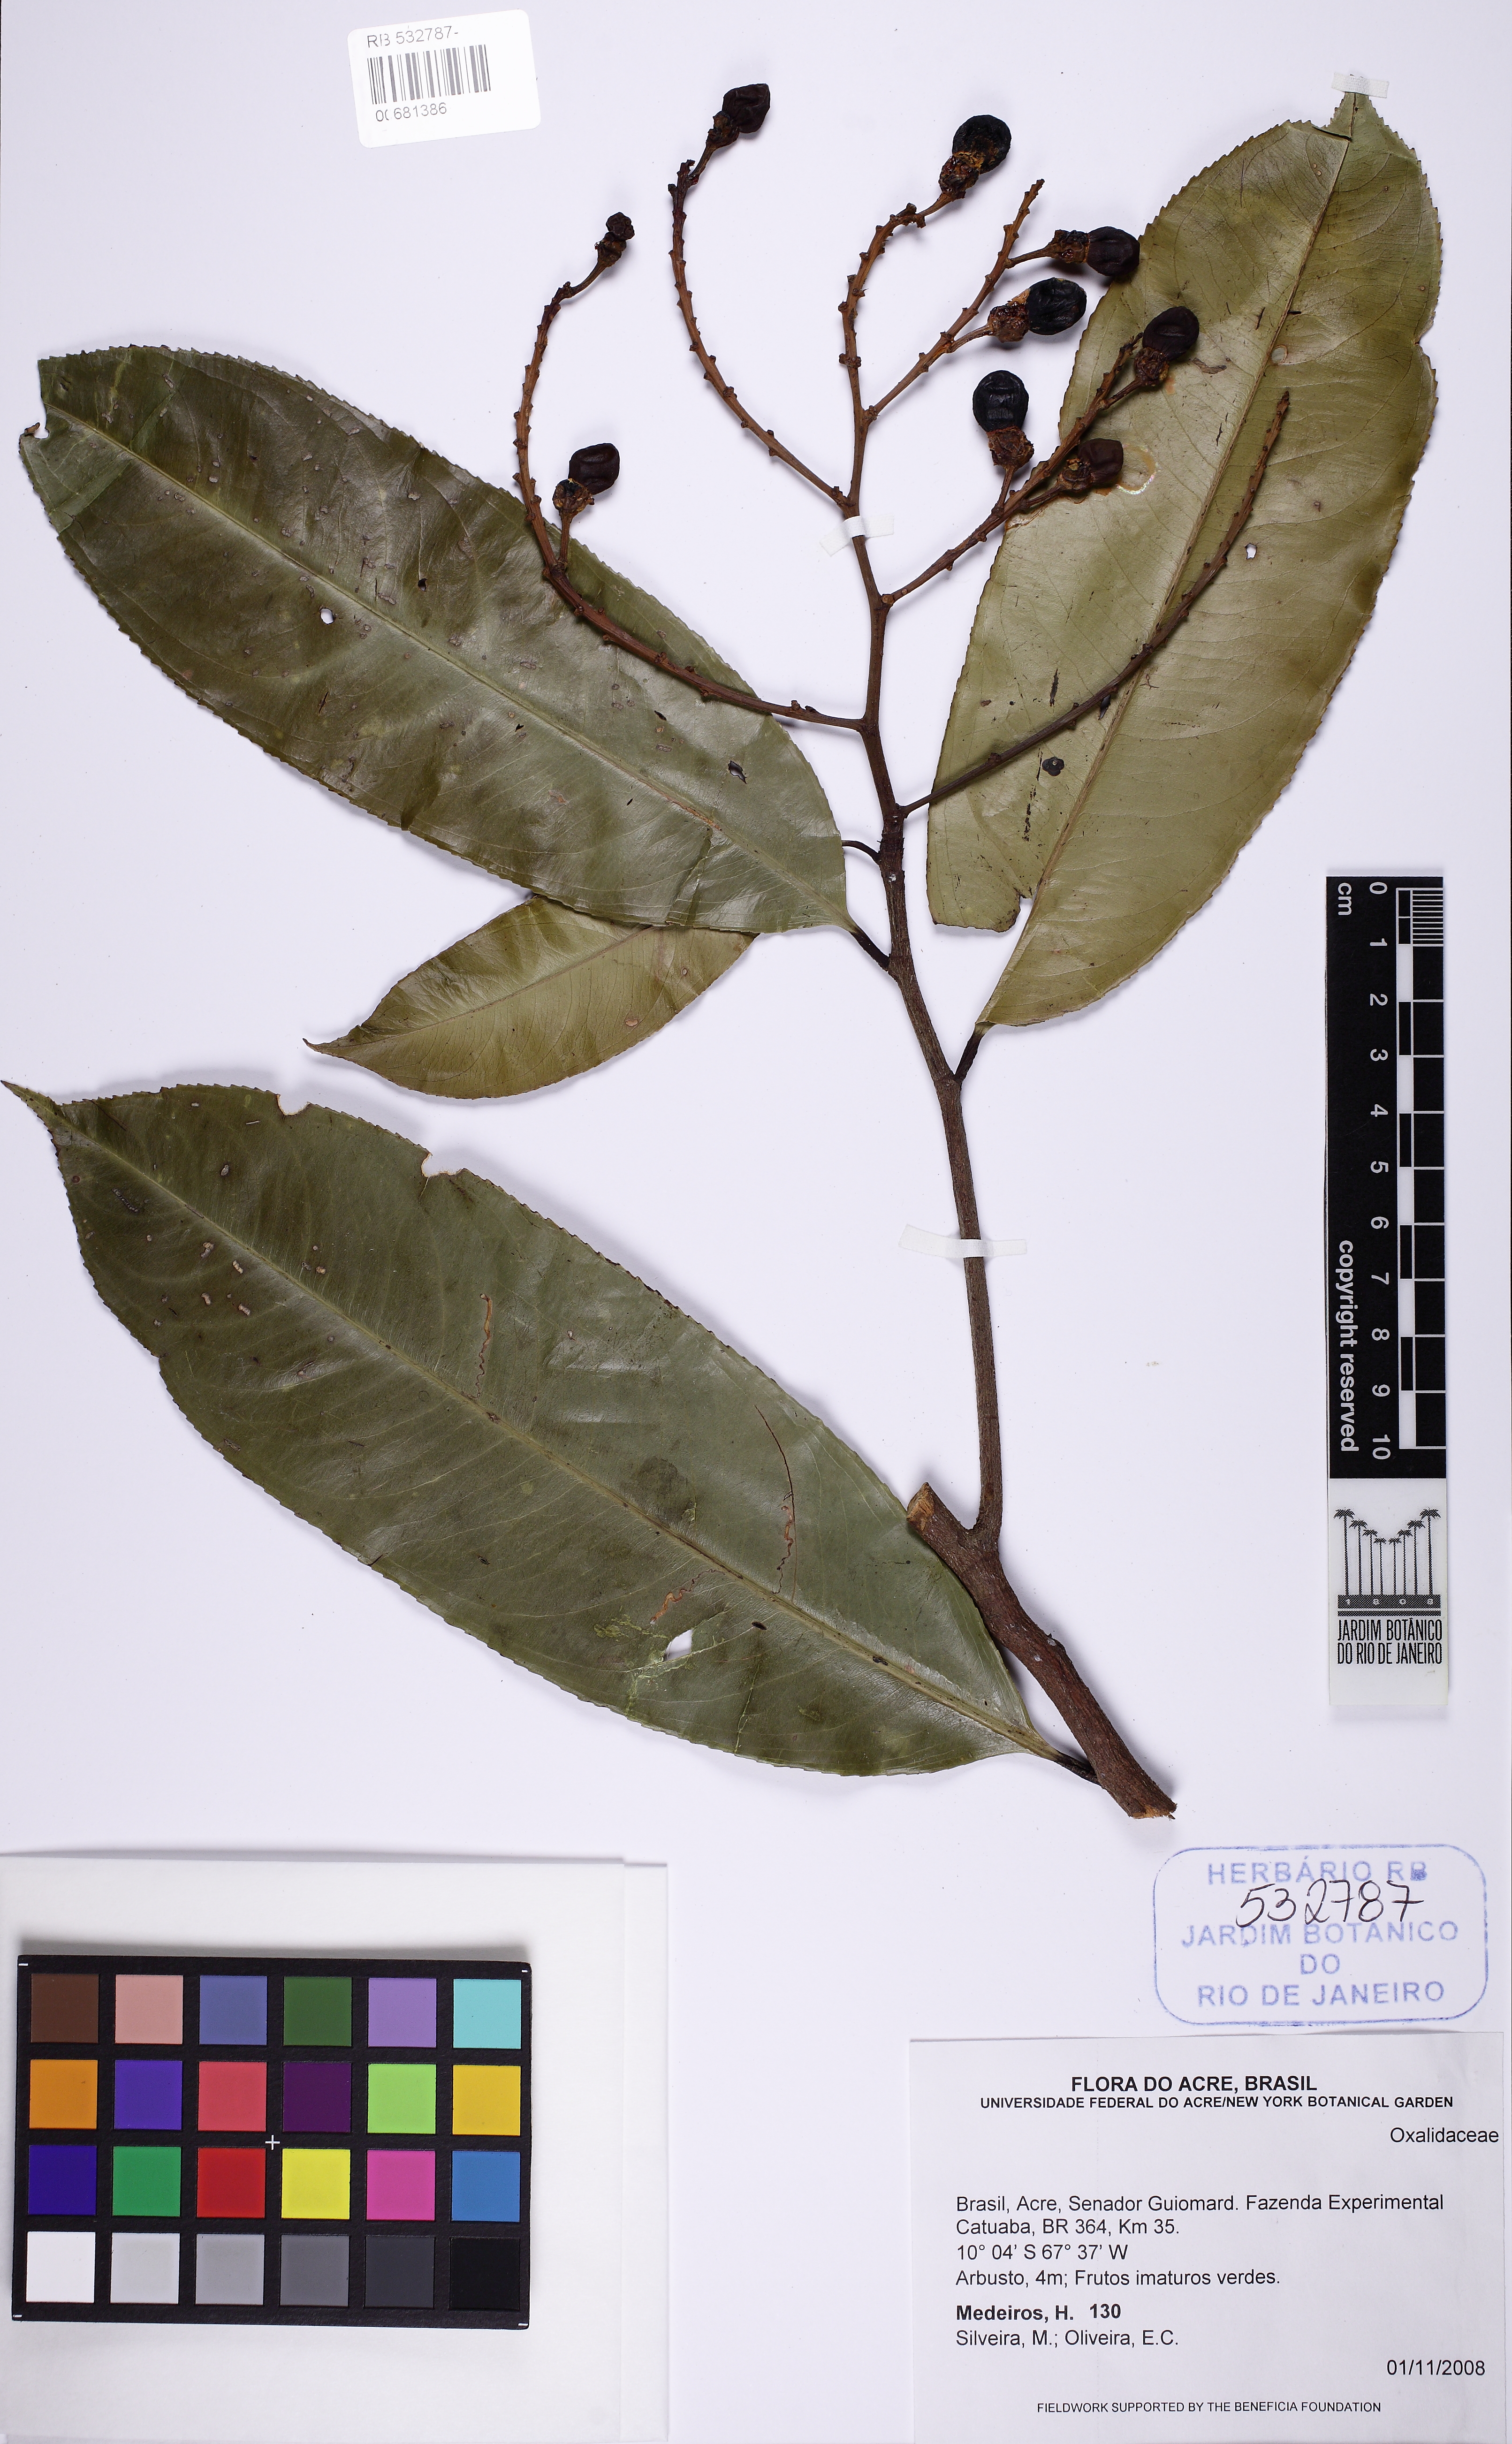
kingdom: Plantae
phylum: Tracheophyta
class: Magnoliopsida
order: Malpighiales
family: Ochnaceae
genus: Ouratea
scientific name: Ouratea
